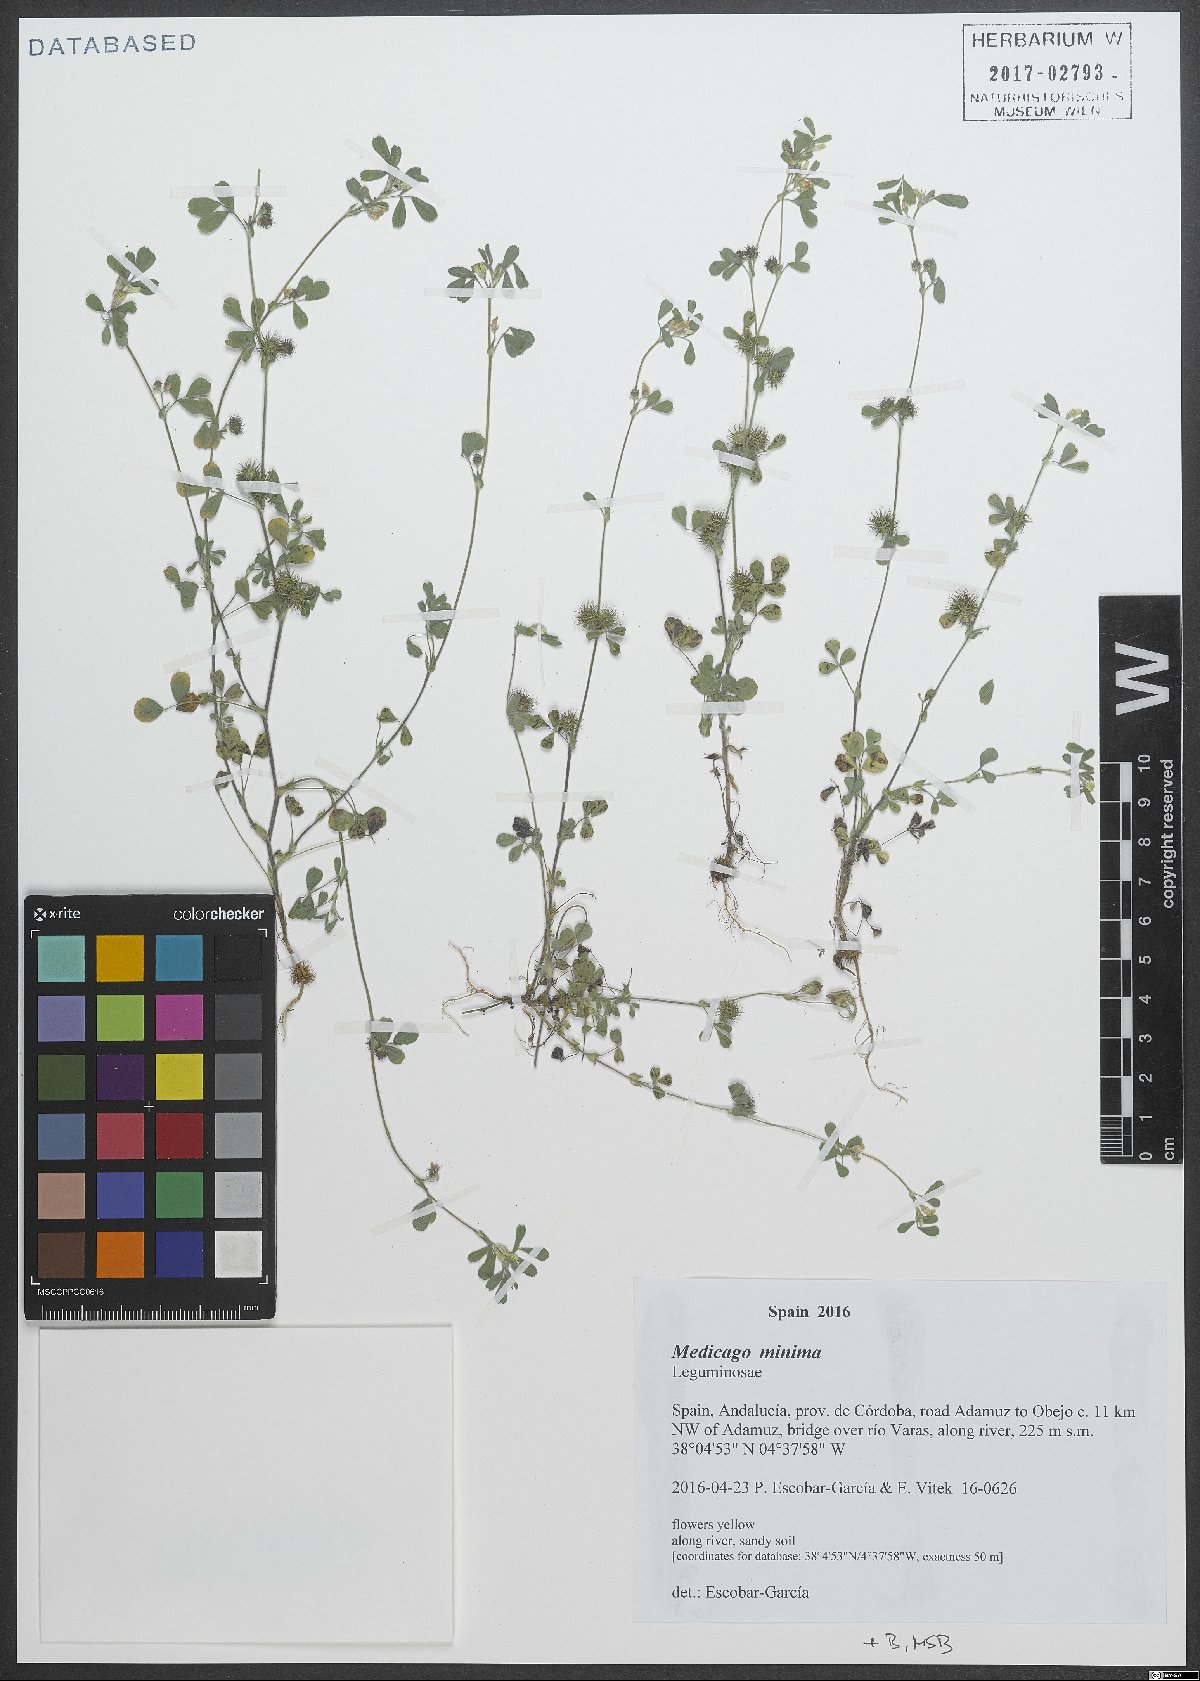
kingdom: Plantae
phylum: Tracheophyta
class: Magnoliopsida
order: Fabales
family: Fabaceae
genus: Medicago
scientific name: Medicago minima
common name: Little bur-clover
